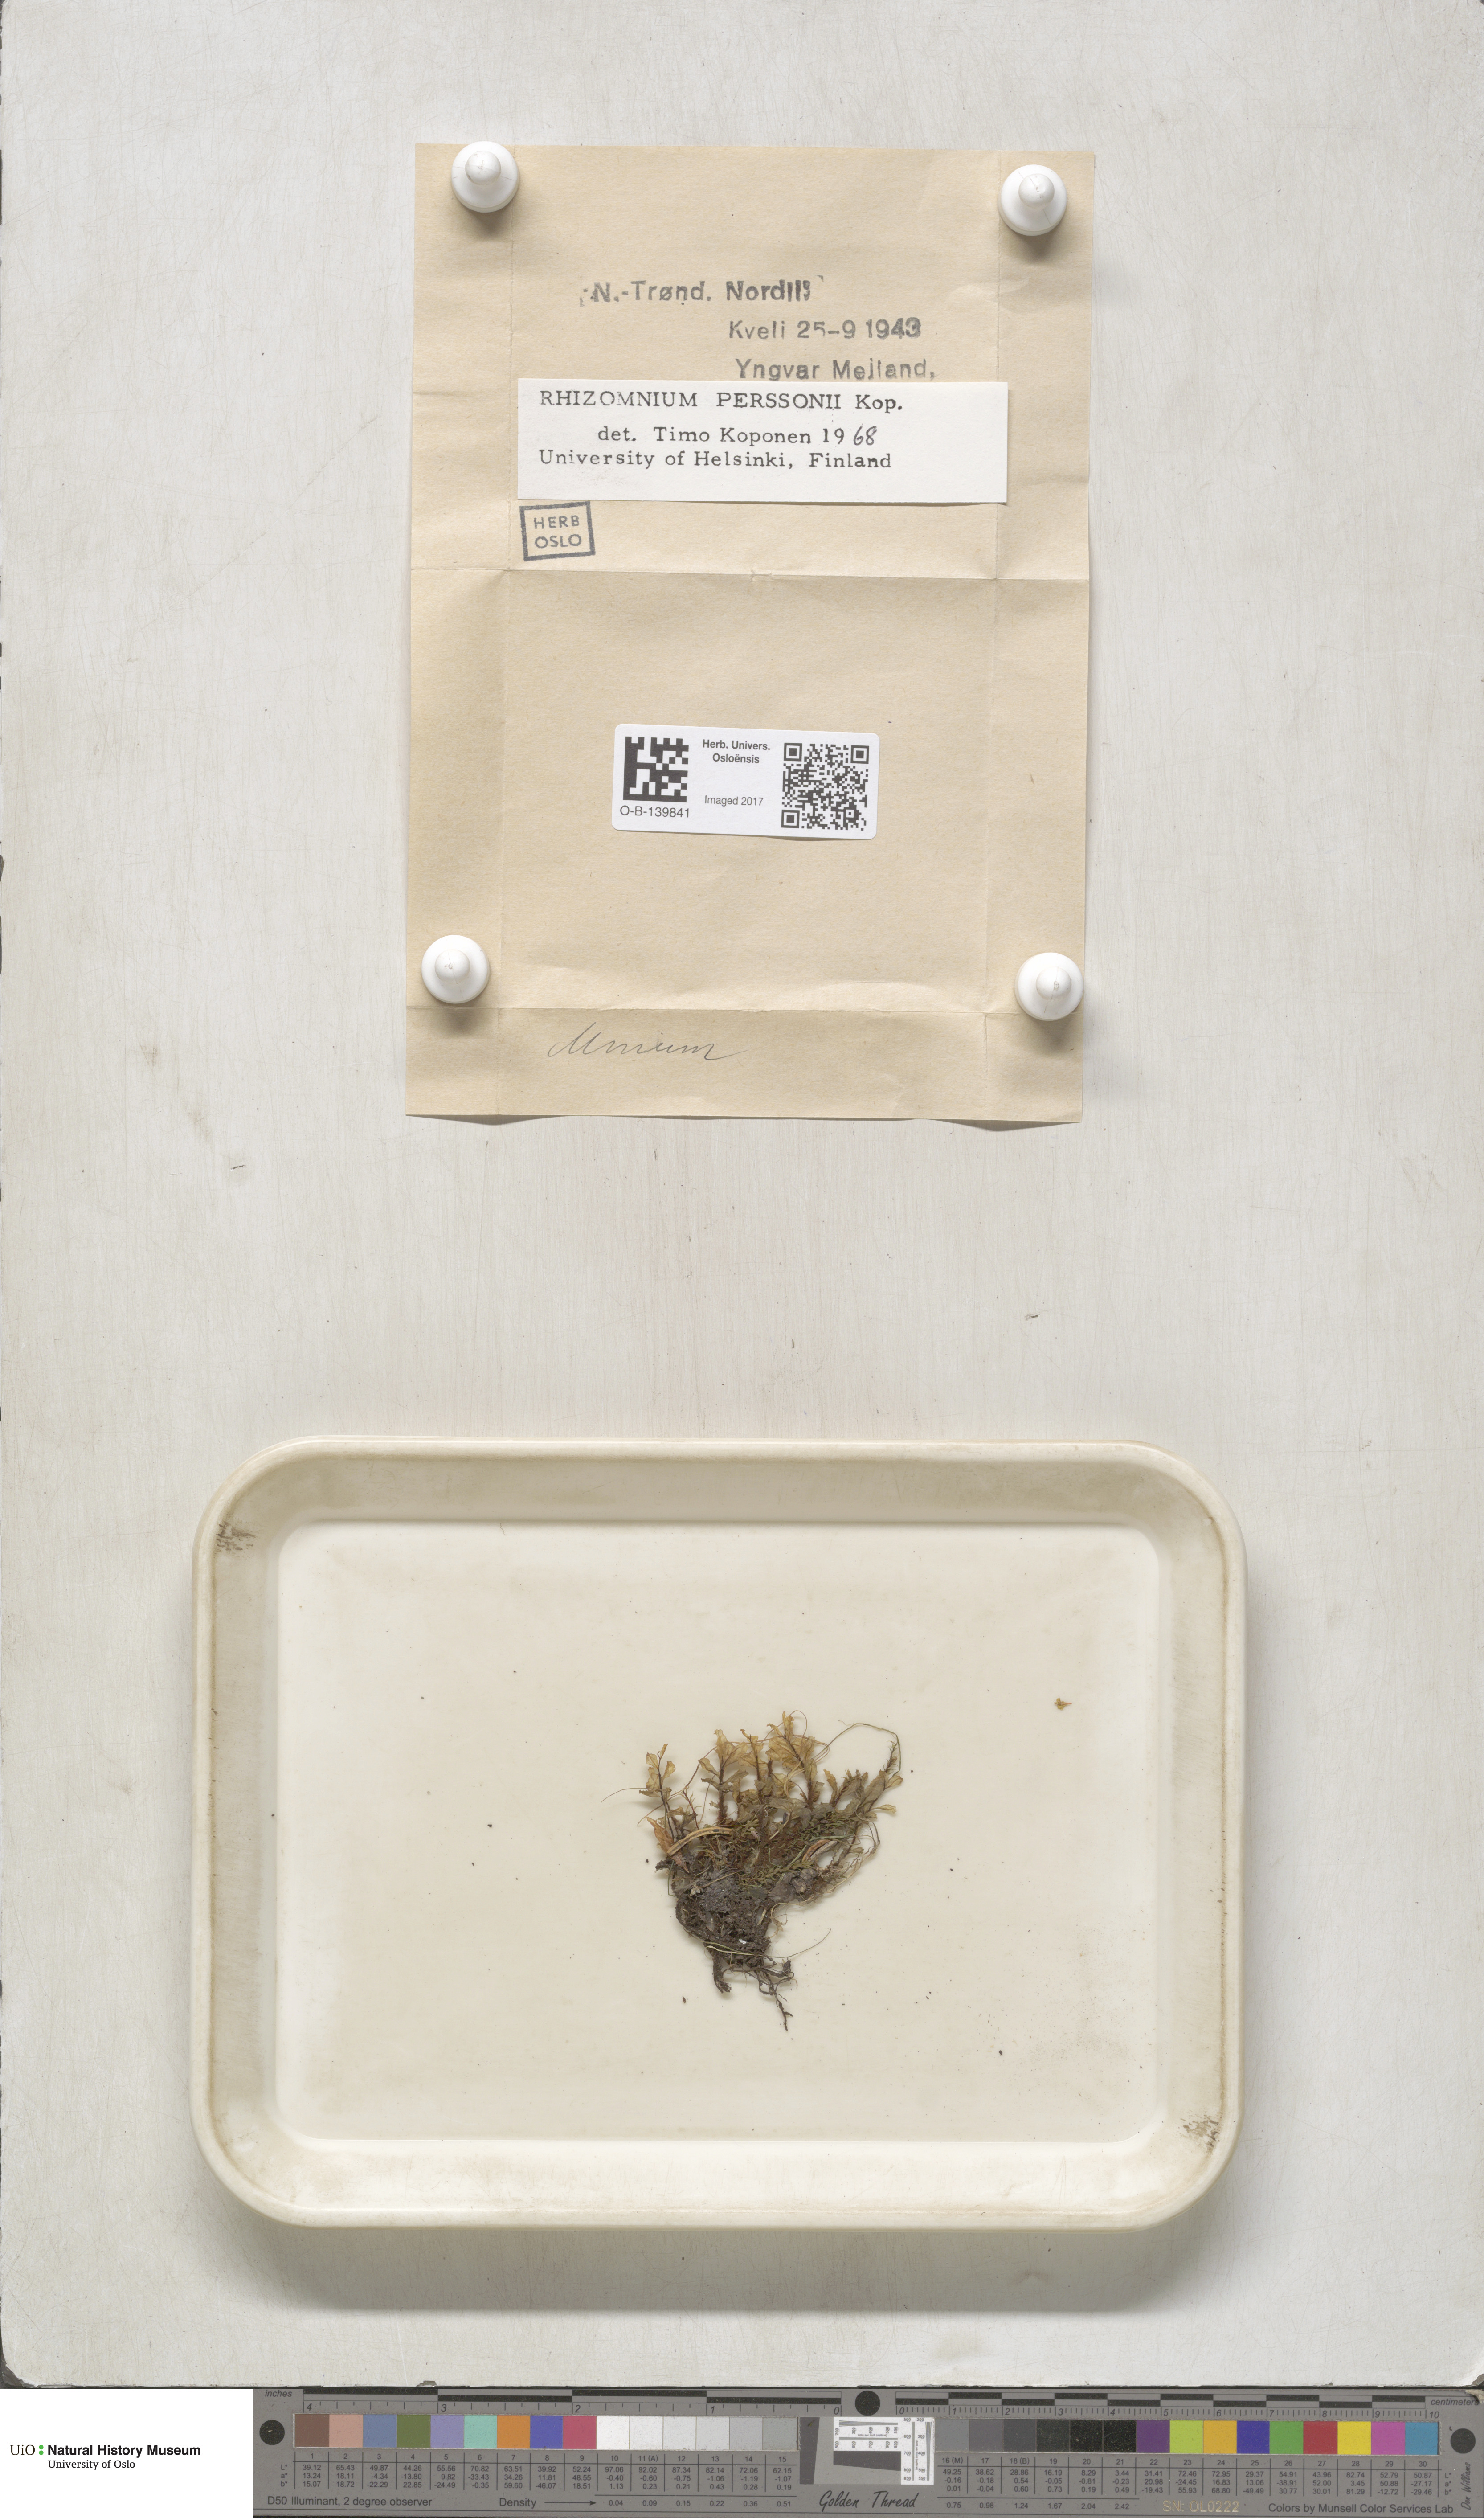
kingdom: Plantae
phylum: Bryophyta
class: Bryopsida
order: Bryales
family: Mniaceae
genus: Rhizomnium
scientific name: Rhizomnium magnifolium
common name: Large-leaved leafy moss
